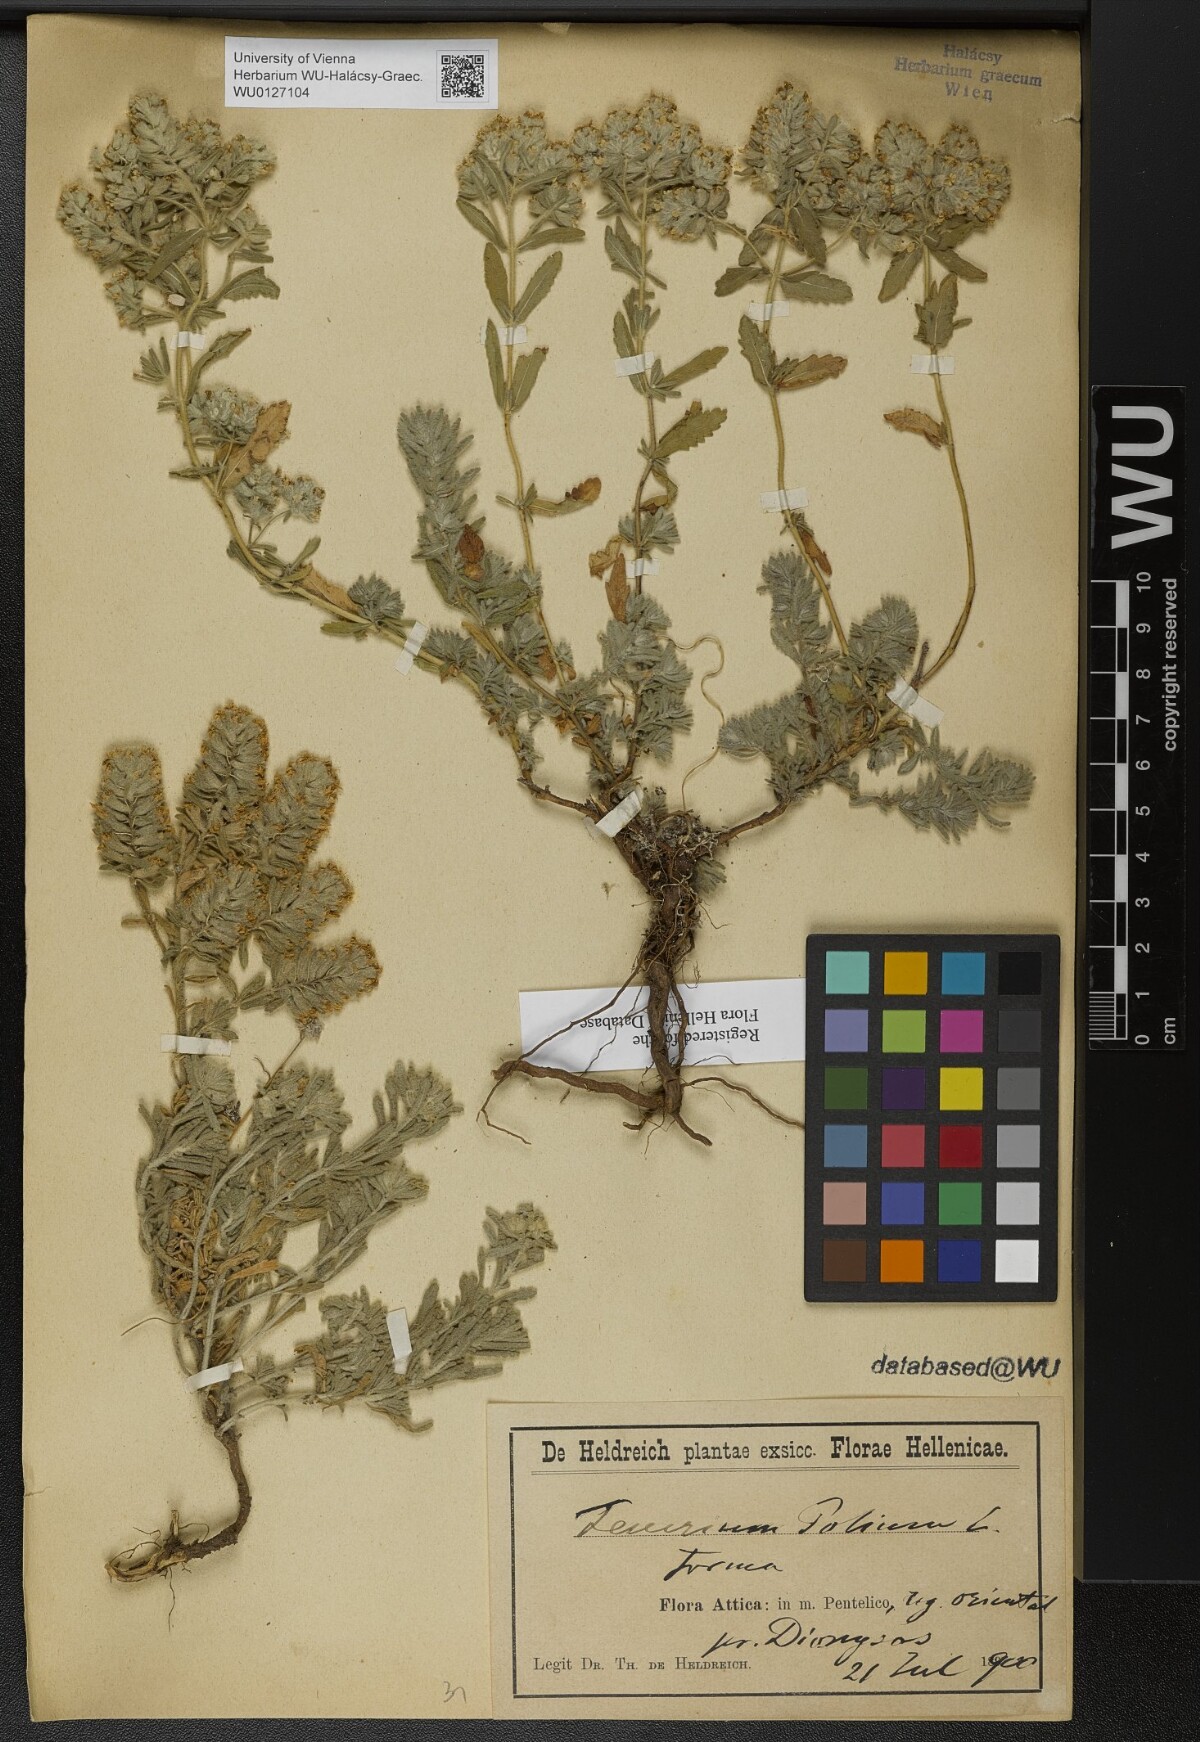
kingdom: Plantae
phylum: Tracheophyta
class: Magnoliopsida
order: Lamiales
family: Lamiaceae
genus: Teucrium
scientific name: Teucrium polium
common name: Poley
